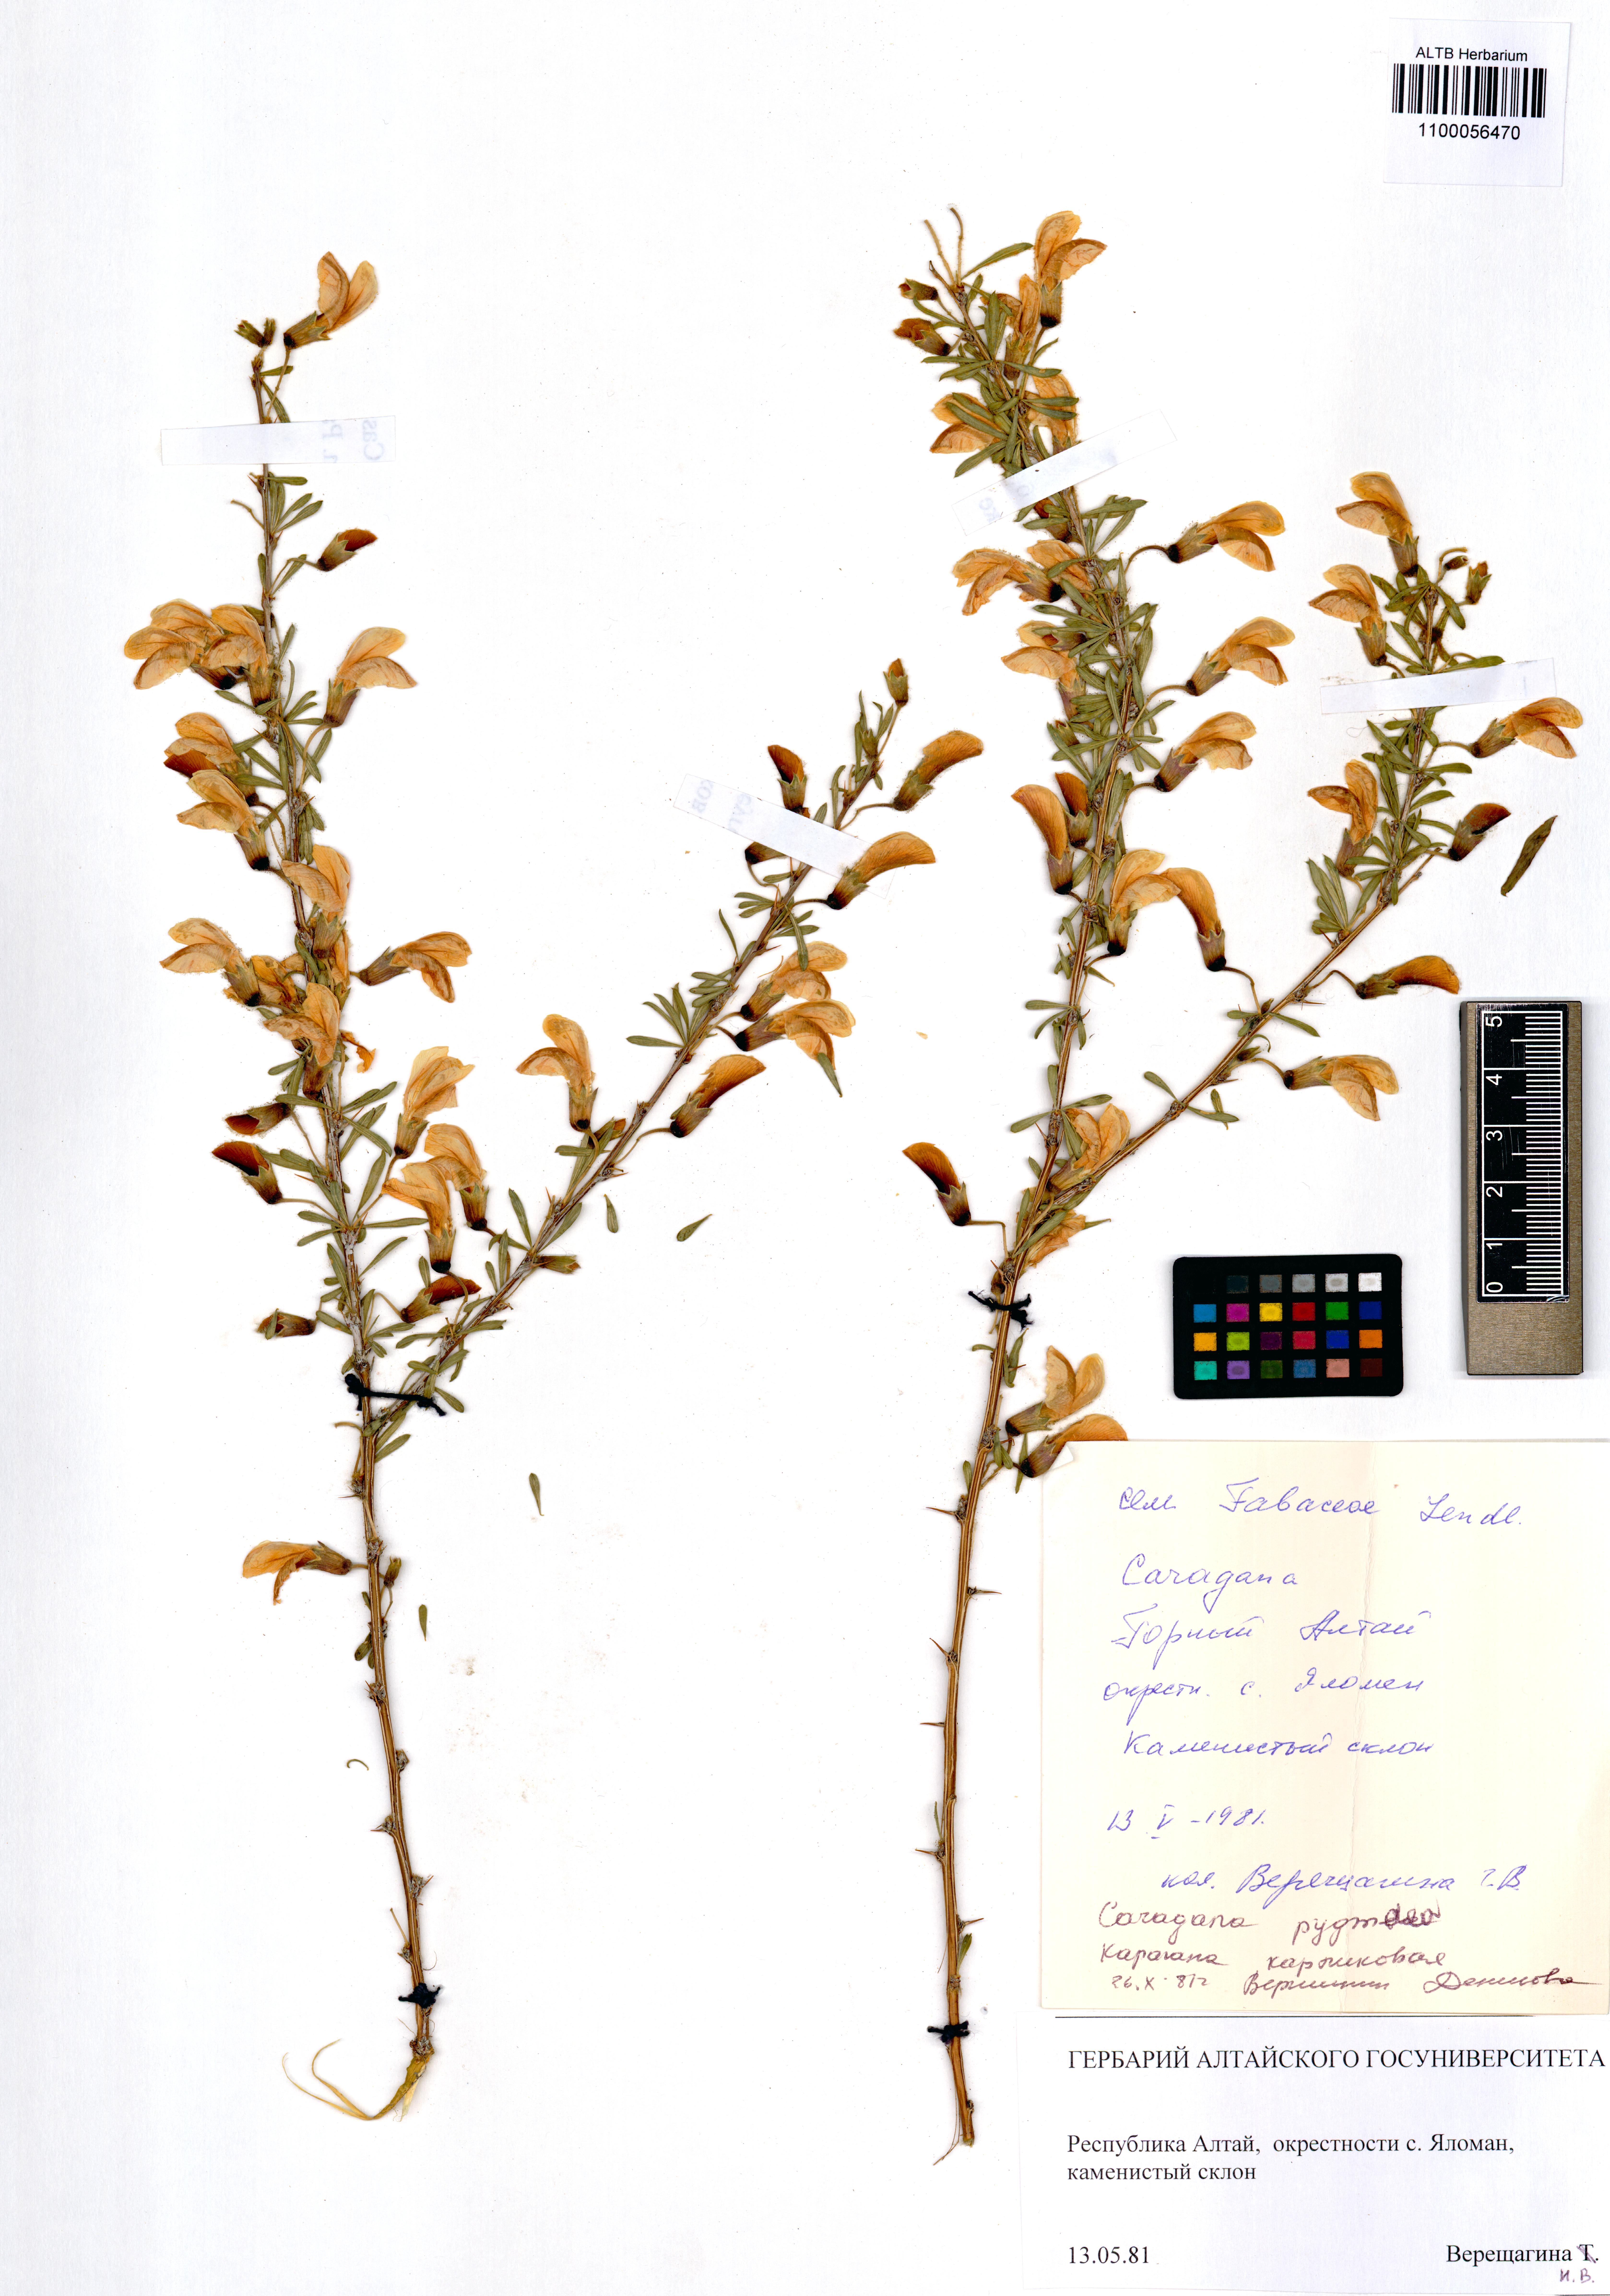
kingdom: Plantae
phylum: Tracheophyta
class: Magnoliopsida
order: Fabales
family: Fabaceae
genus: Caragana
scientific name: Caragana pygmaea
